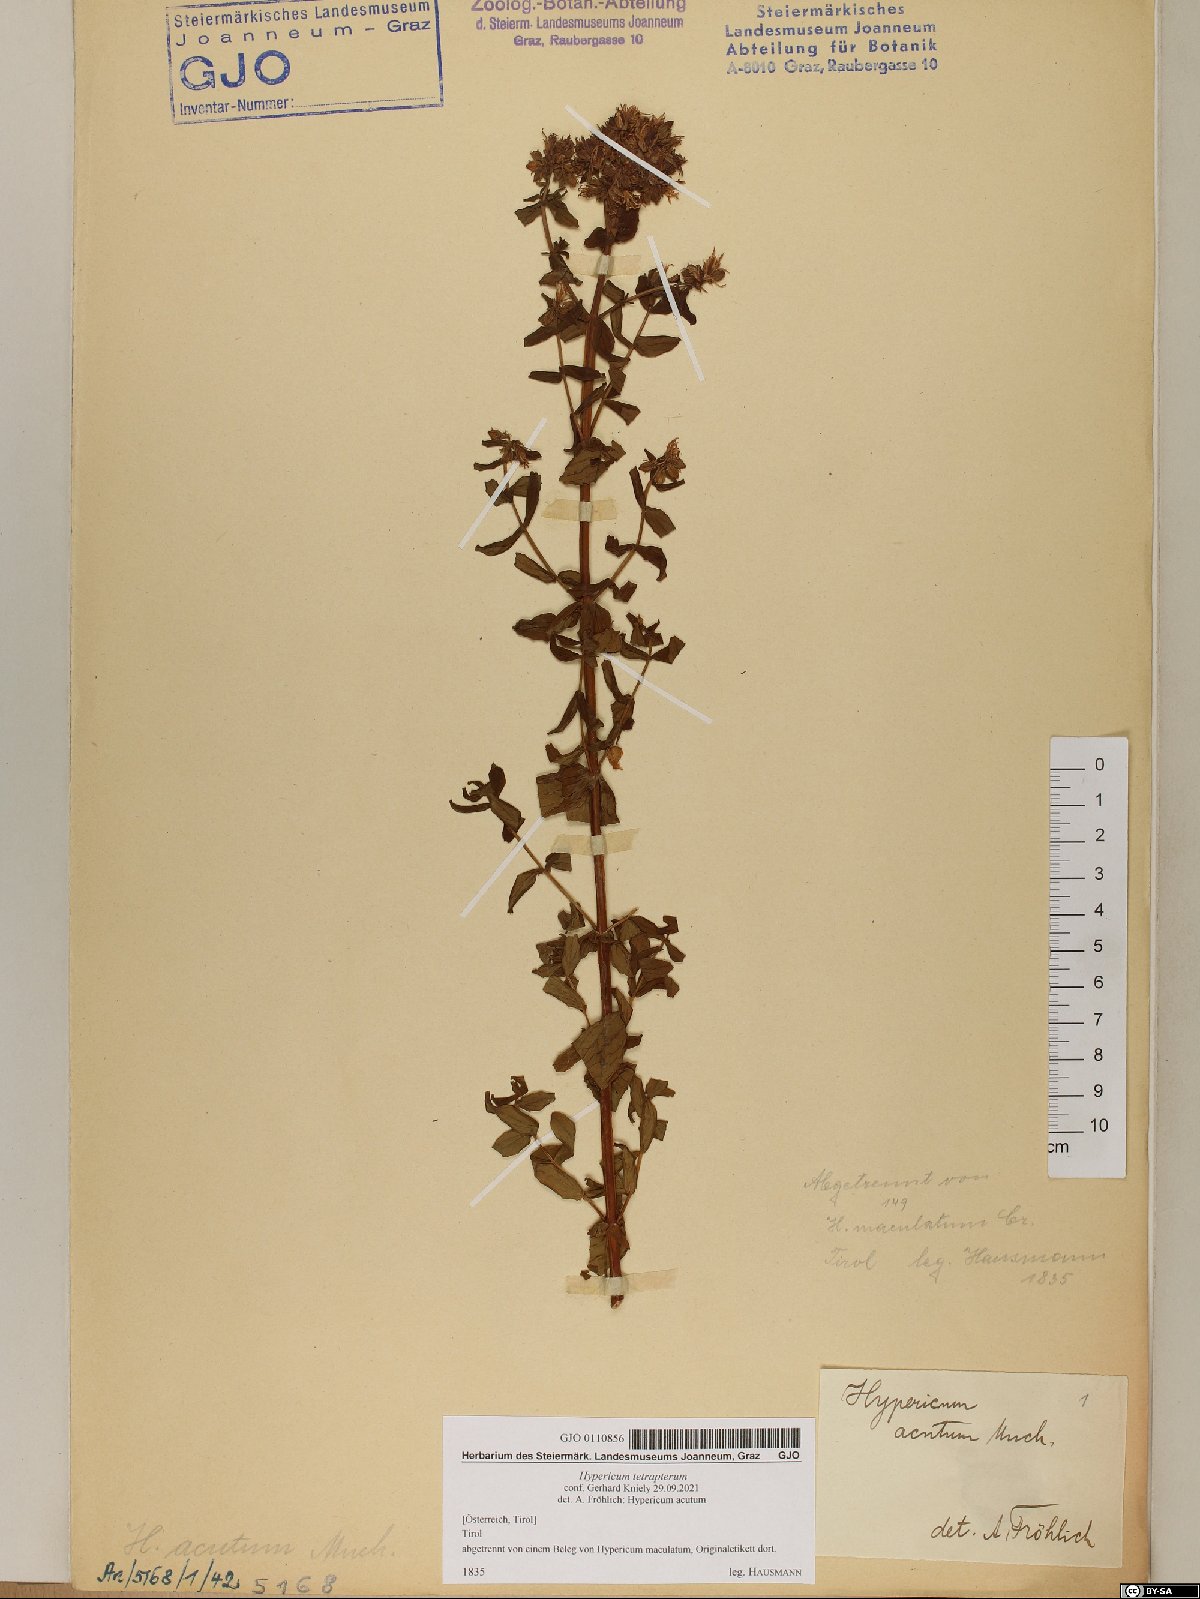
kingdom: Plantae
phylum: Tracheophyta
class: Magnoliopsida
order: Malpighiales
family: Hypericaceae
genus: Hypericum
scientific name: Hypericum tetrapterum
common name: Square-stalked st. john's-wort
